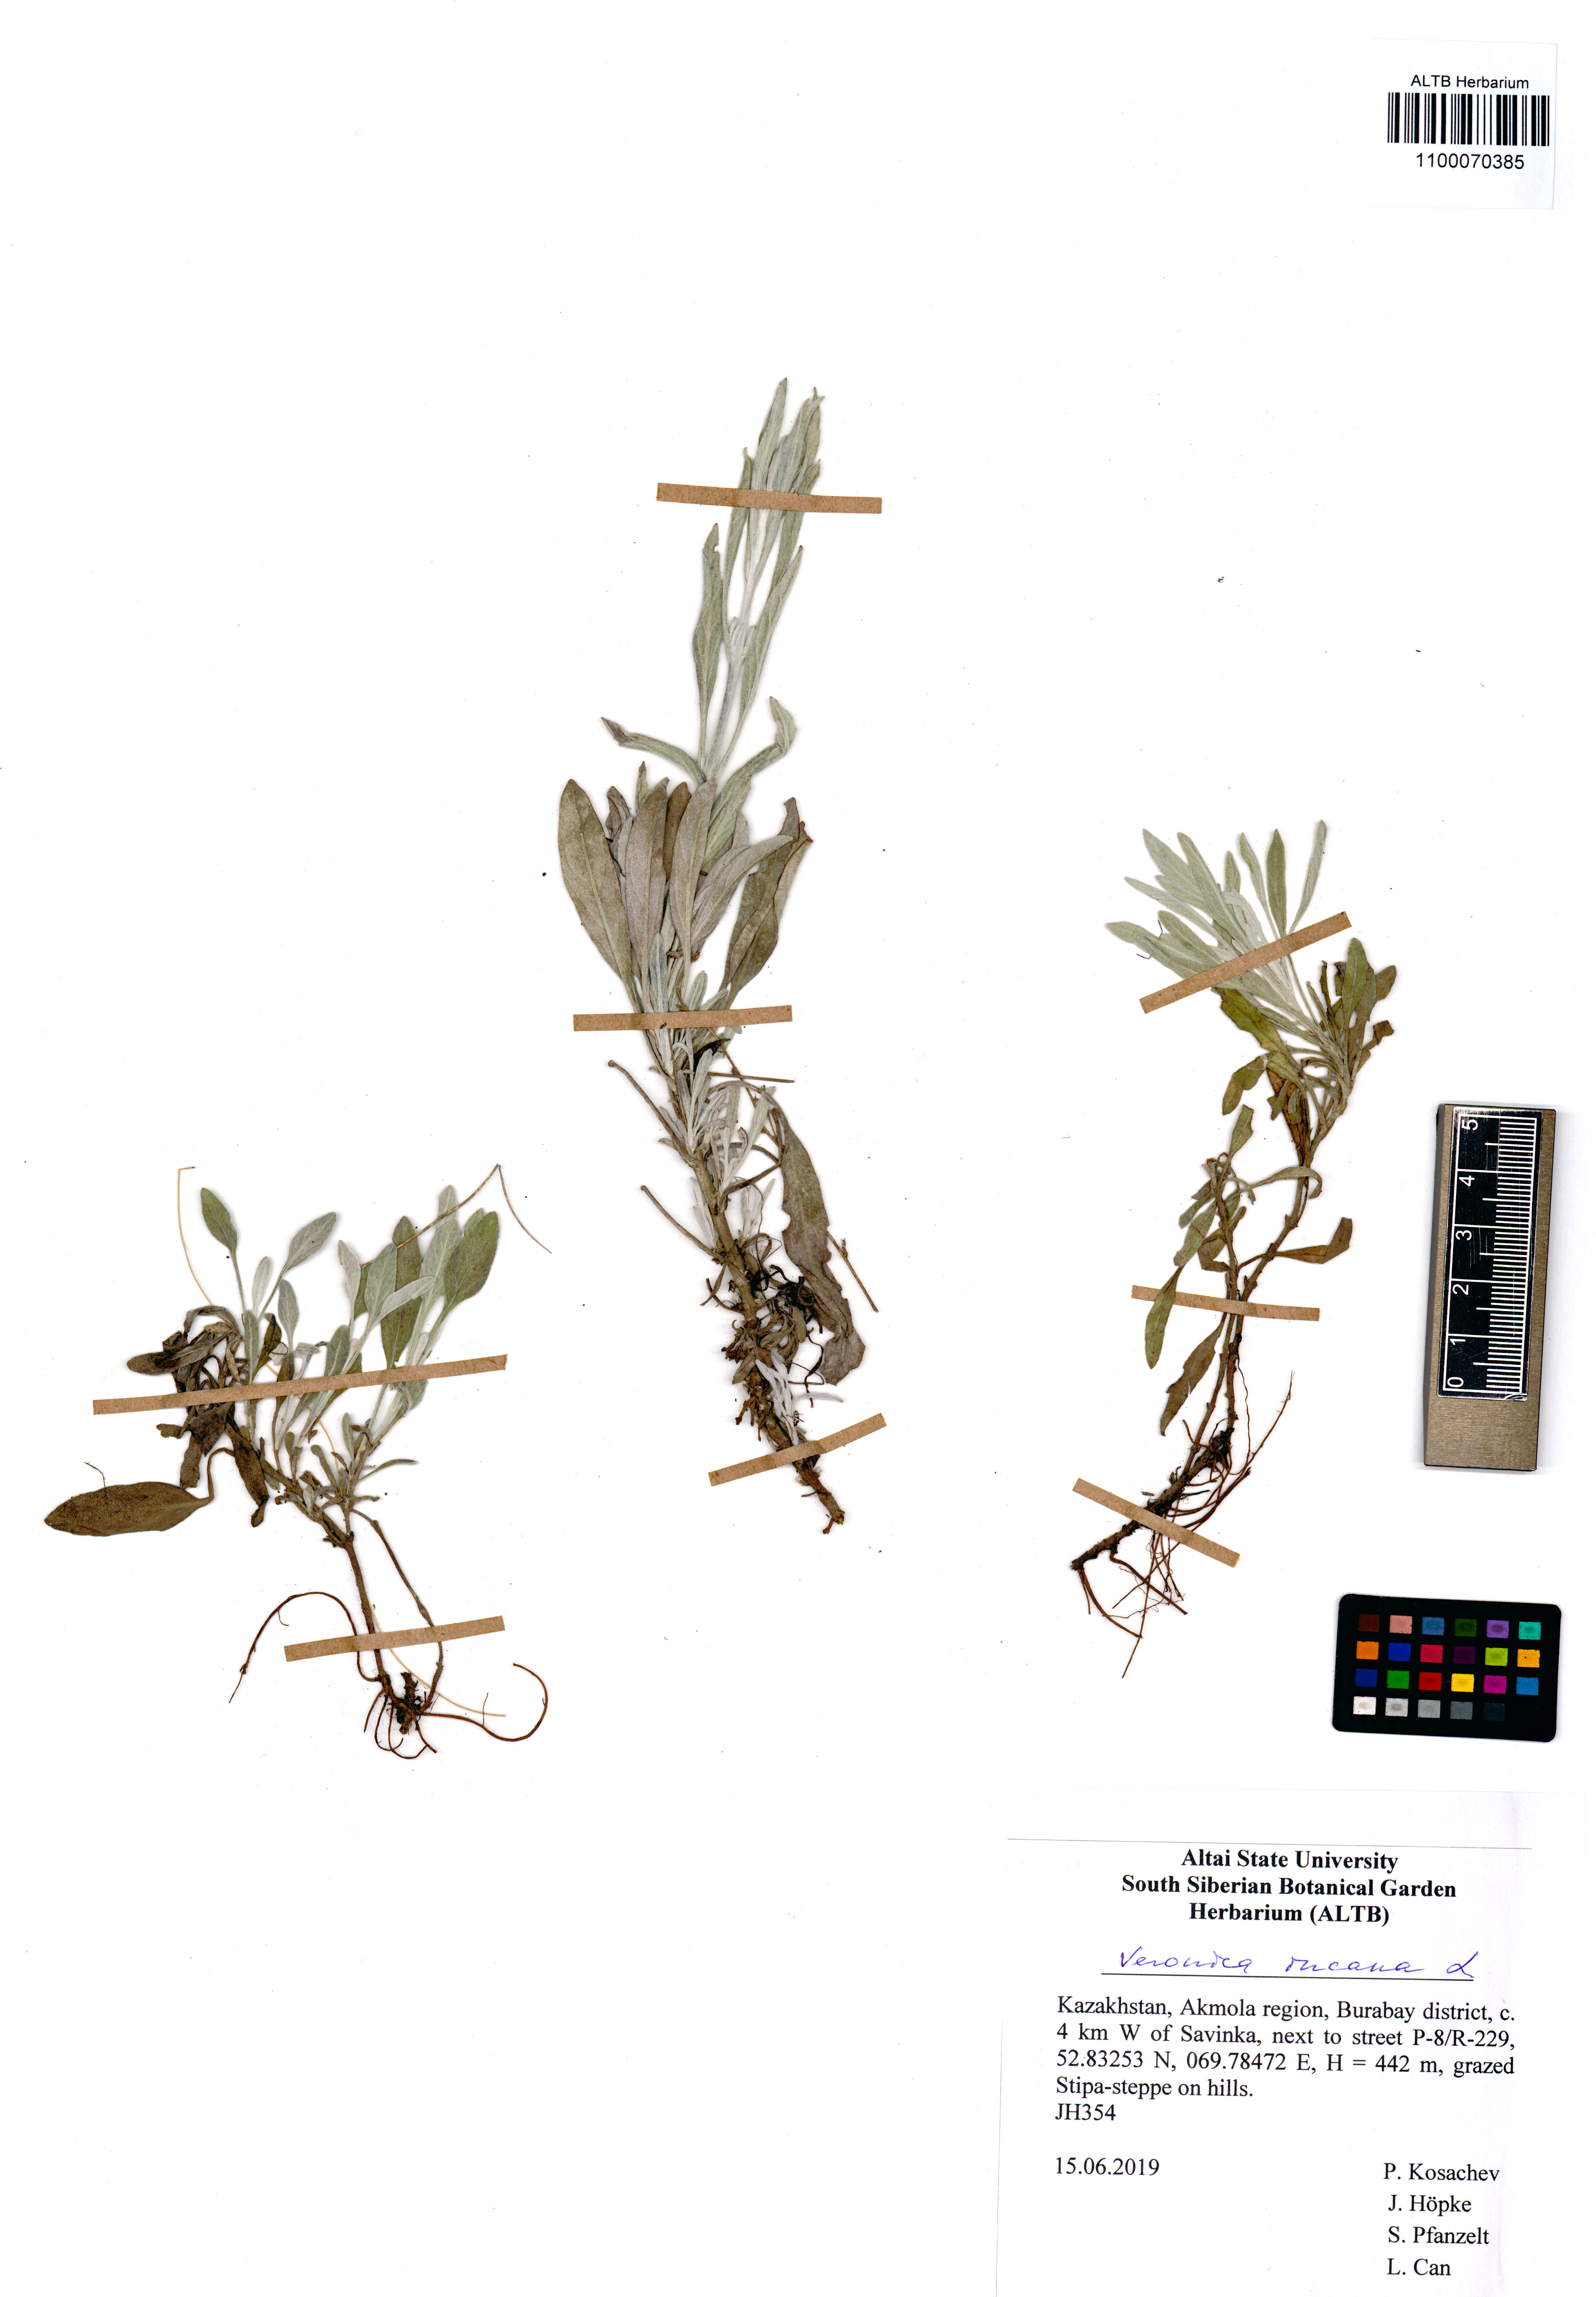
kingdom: Plantae
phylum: Tracheophyta
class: Magnoliopsida
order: Lamiales
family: Plantaginaceae
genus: Veronica
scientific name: Veronica incana
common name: Silver speedwell
